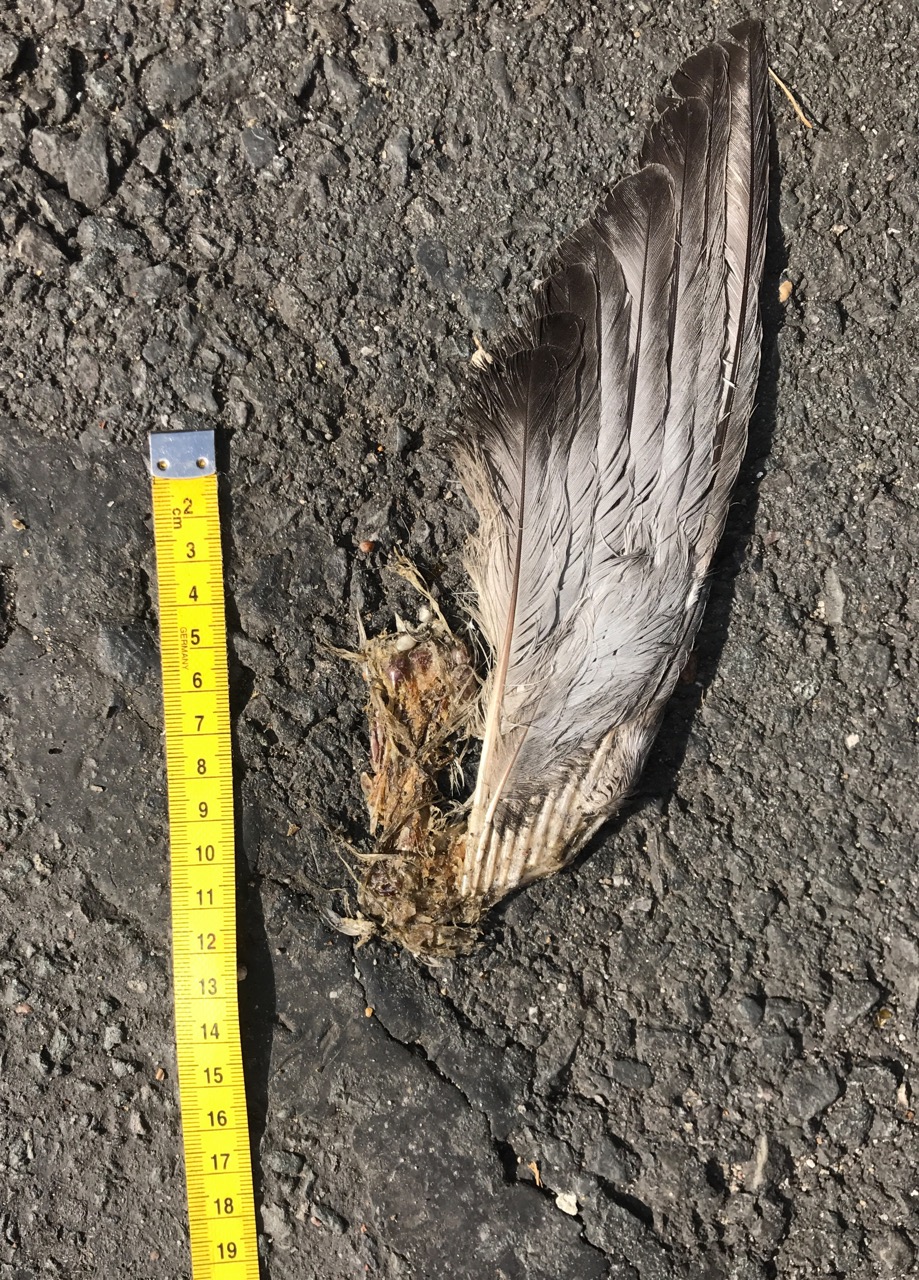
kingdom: Animalia
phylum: Chordata
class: Aves
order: Columbiformes
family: Columbidae
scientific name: Columbidae
